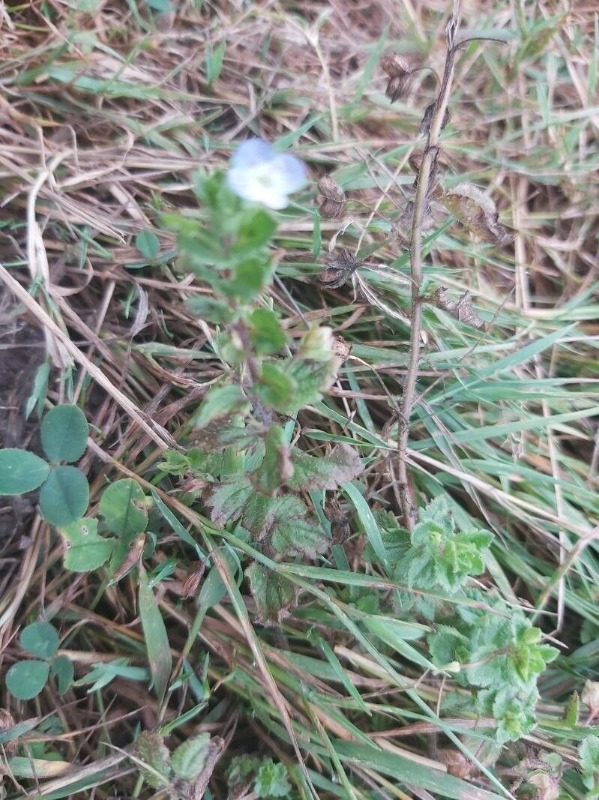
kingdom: Plantae
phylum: Tracheophyta
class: Magnoliopsida
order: Lamiales
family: Plantaginaceae
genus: Veronica
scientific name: Veronica persica
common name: Storkronet ærenpris
